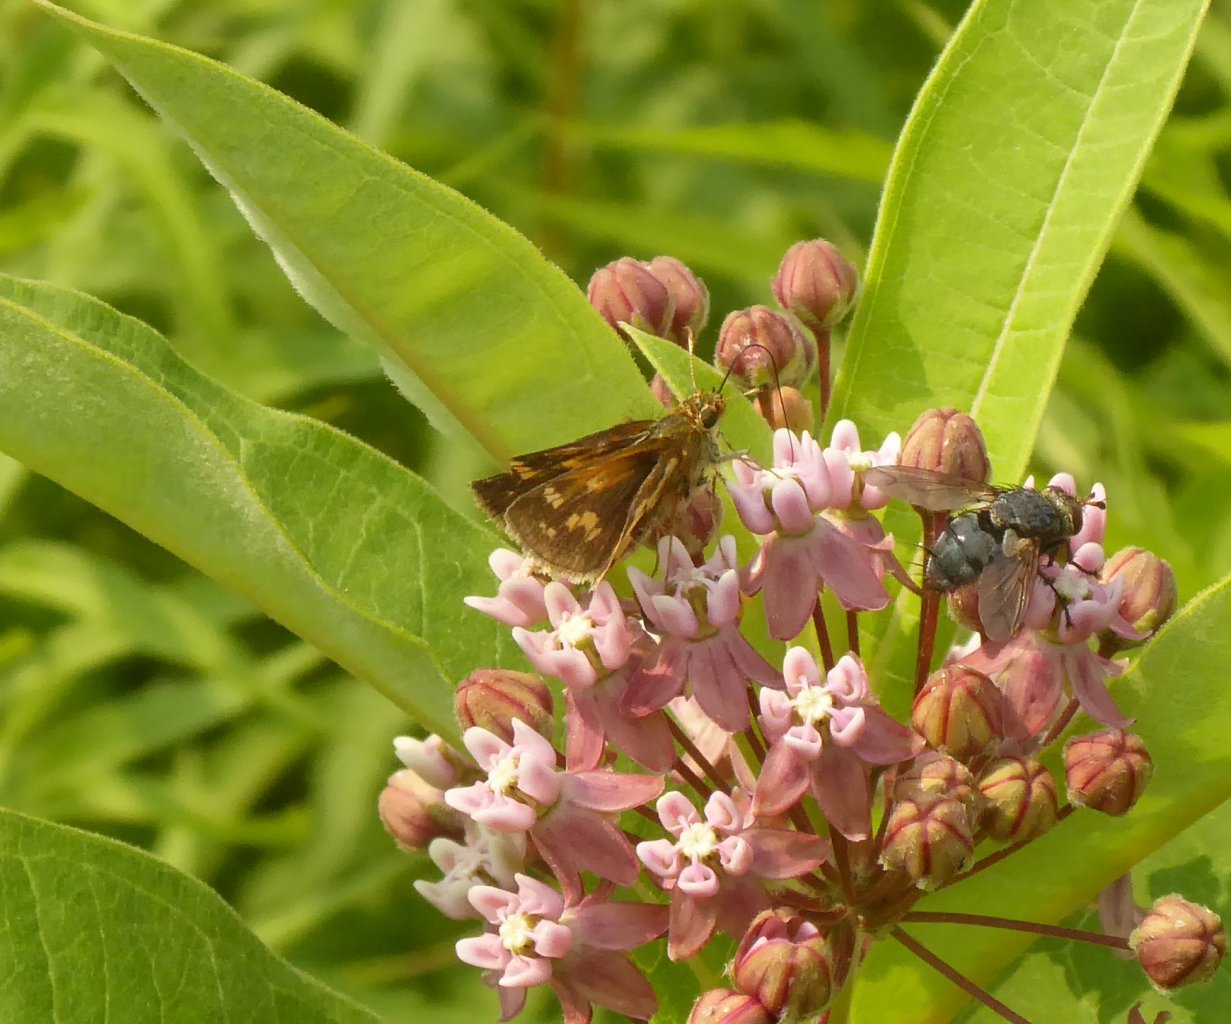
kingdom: Animalia
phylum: Arthropoda
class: Insecta
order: Lepidoptera
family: Hesperiidae
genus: Polites
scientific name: Polites coras
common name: Peck's Skipper
